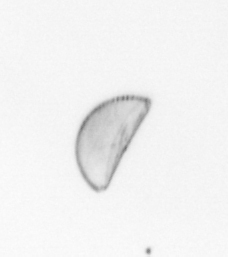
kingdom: Chromista
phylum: Ochrophyta
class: Bacillariophyceae
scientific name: Bacillariophyceae
